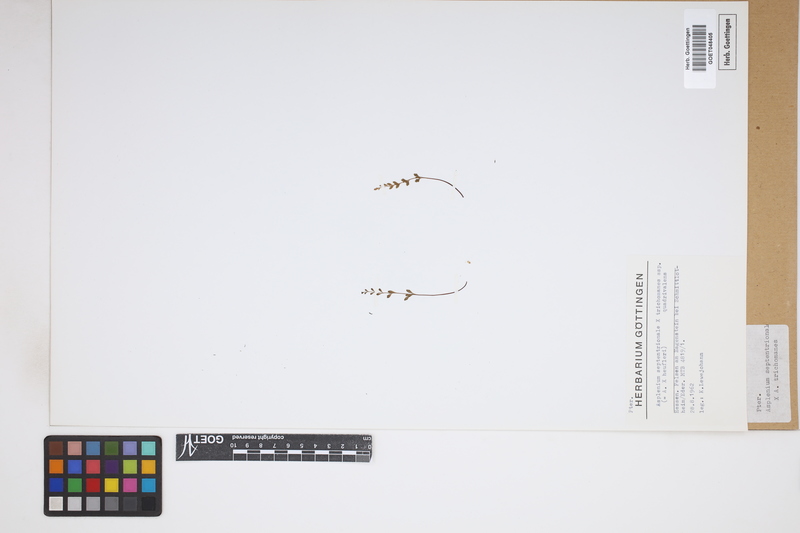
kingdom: Plantae
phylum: Tracheophyta
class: Polypodiopsida
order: Polypodiales
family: Aspleniaceae
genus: Asplenium
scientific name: Asplenium
